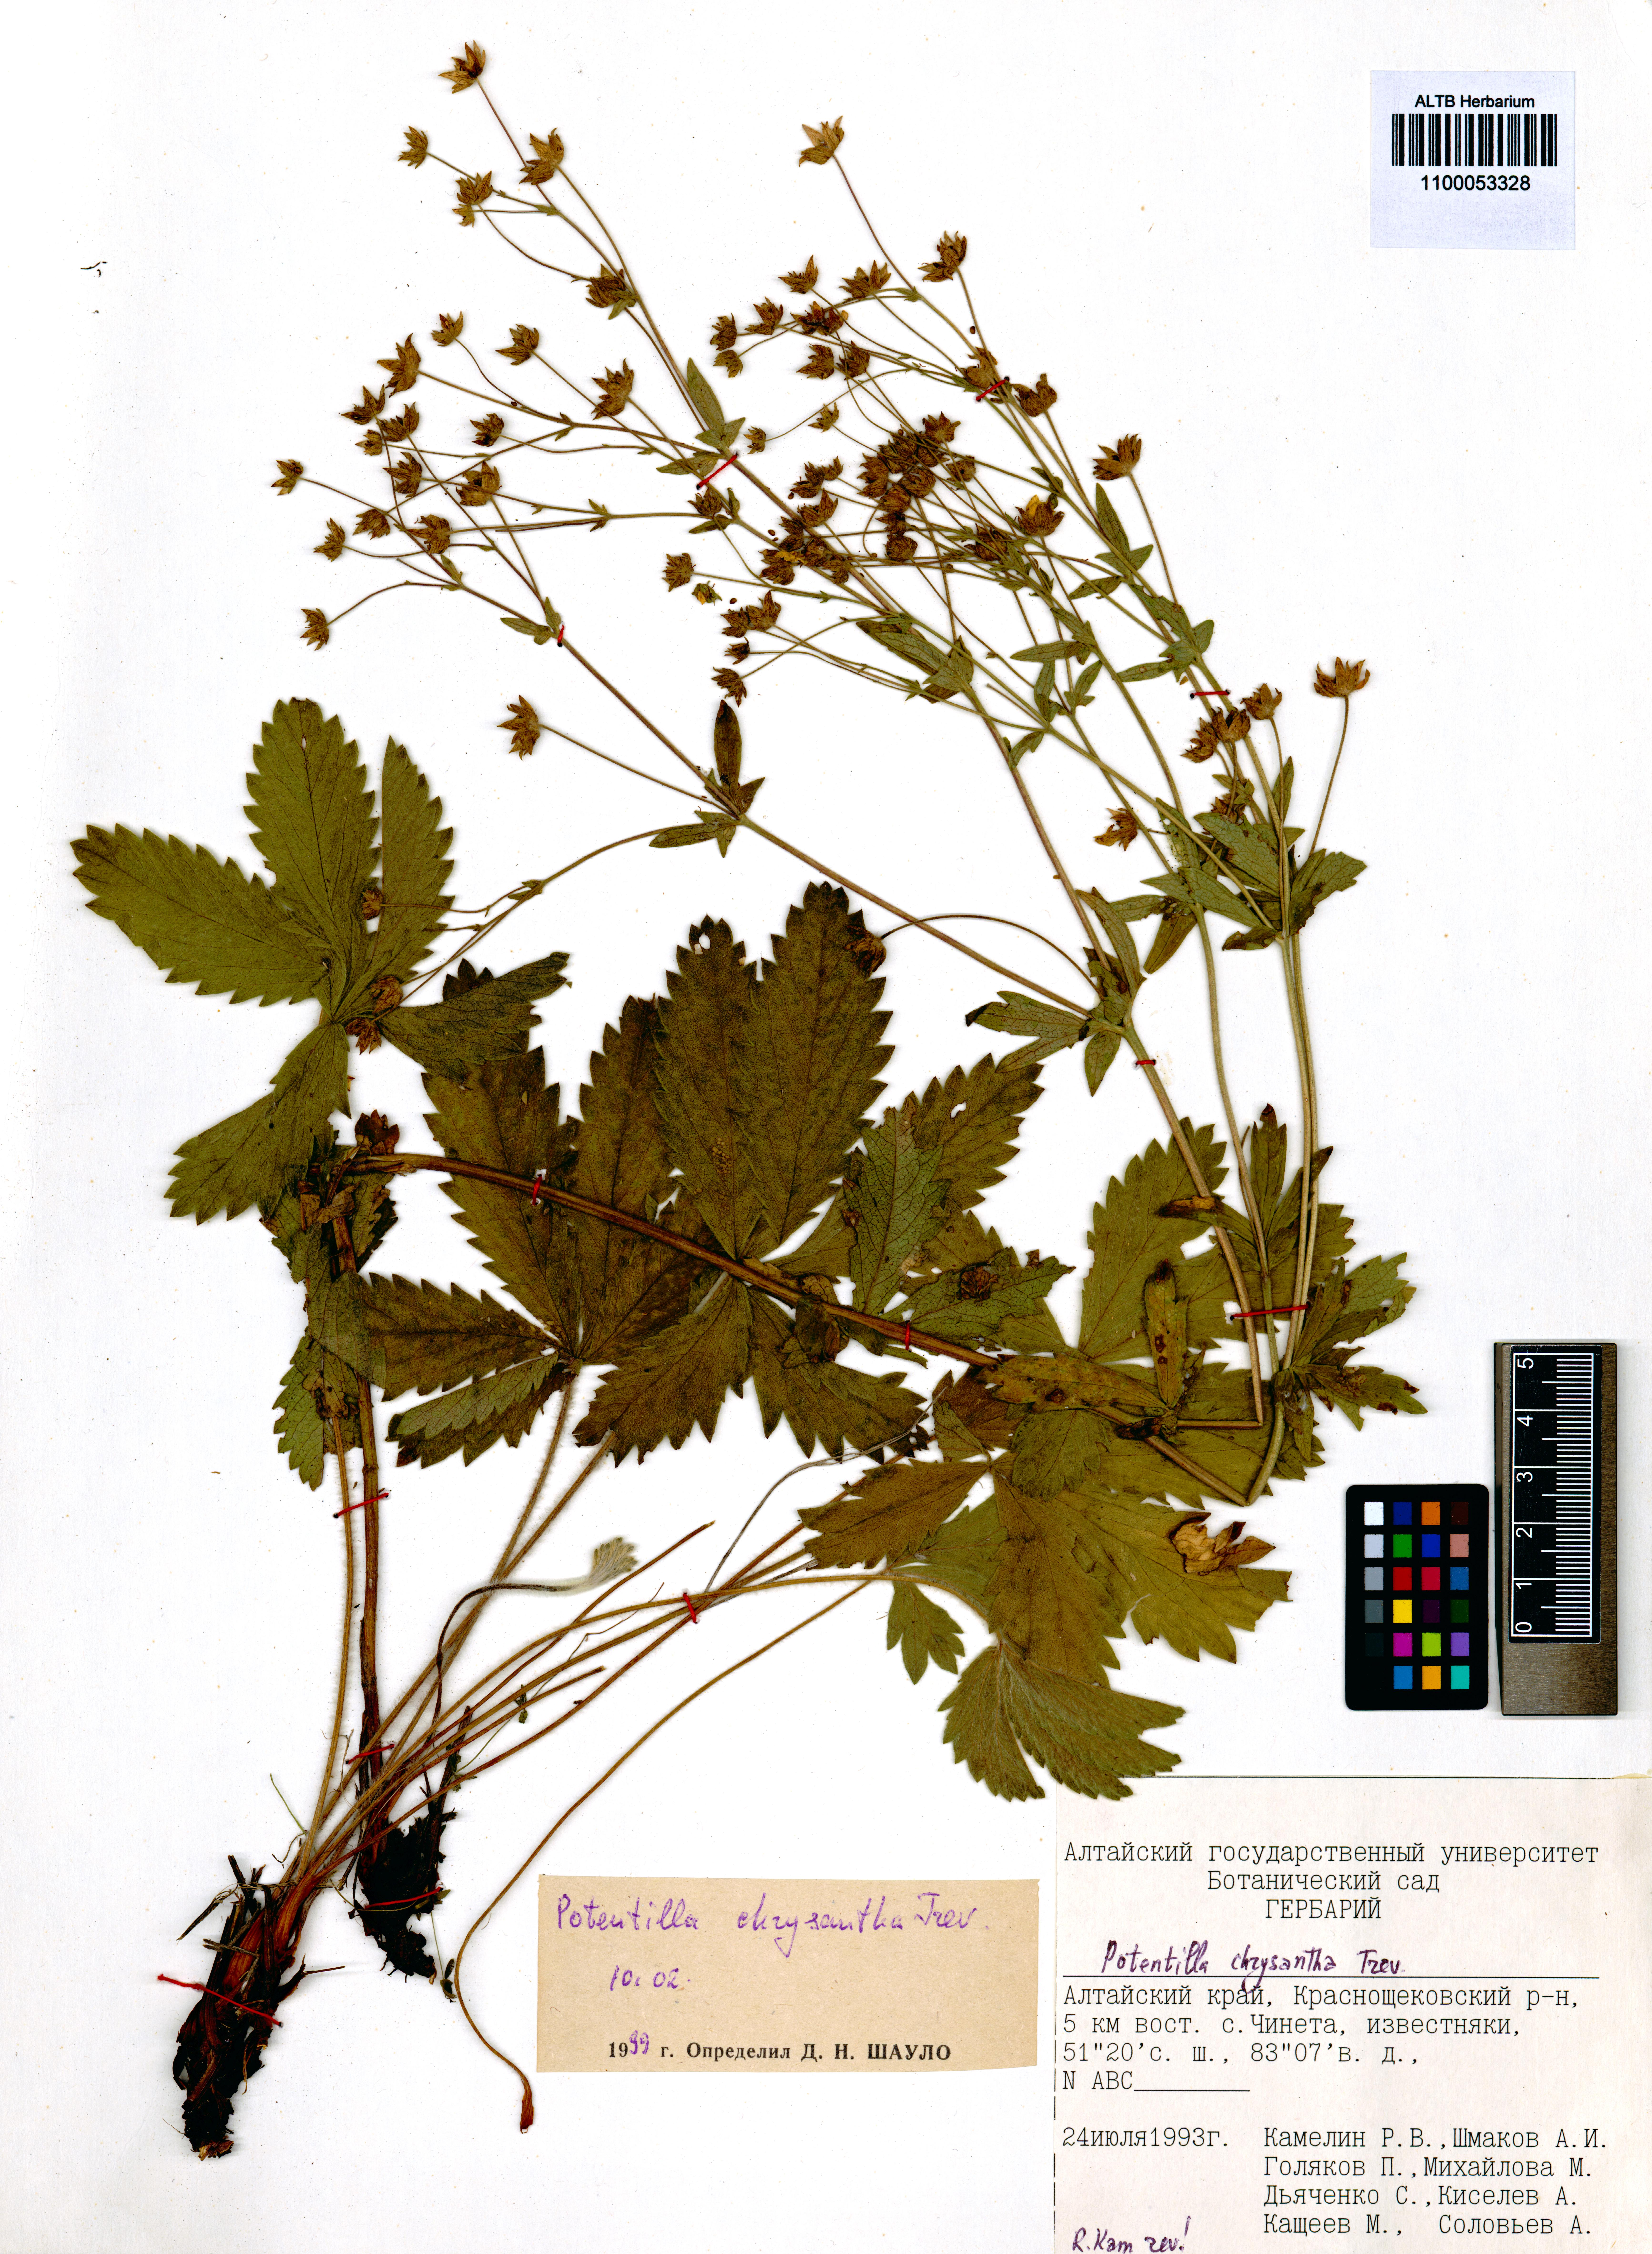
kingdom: Plantae
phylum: Tracheophyta
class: Magnoliopsida
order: Rosales
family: Rosaceae
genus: Potentilla
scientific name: Potentilla chrysantha
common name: Thuringian cinquefoil
